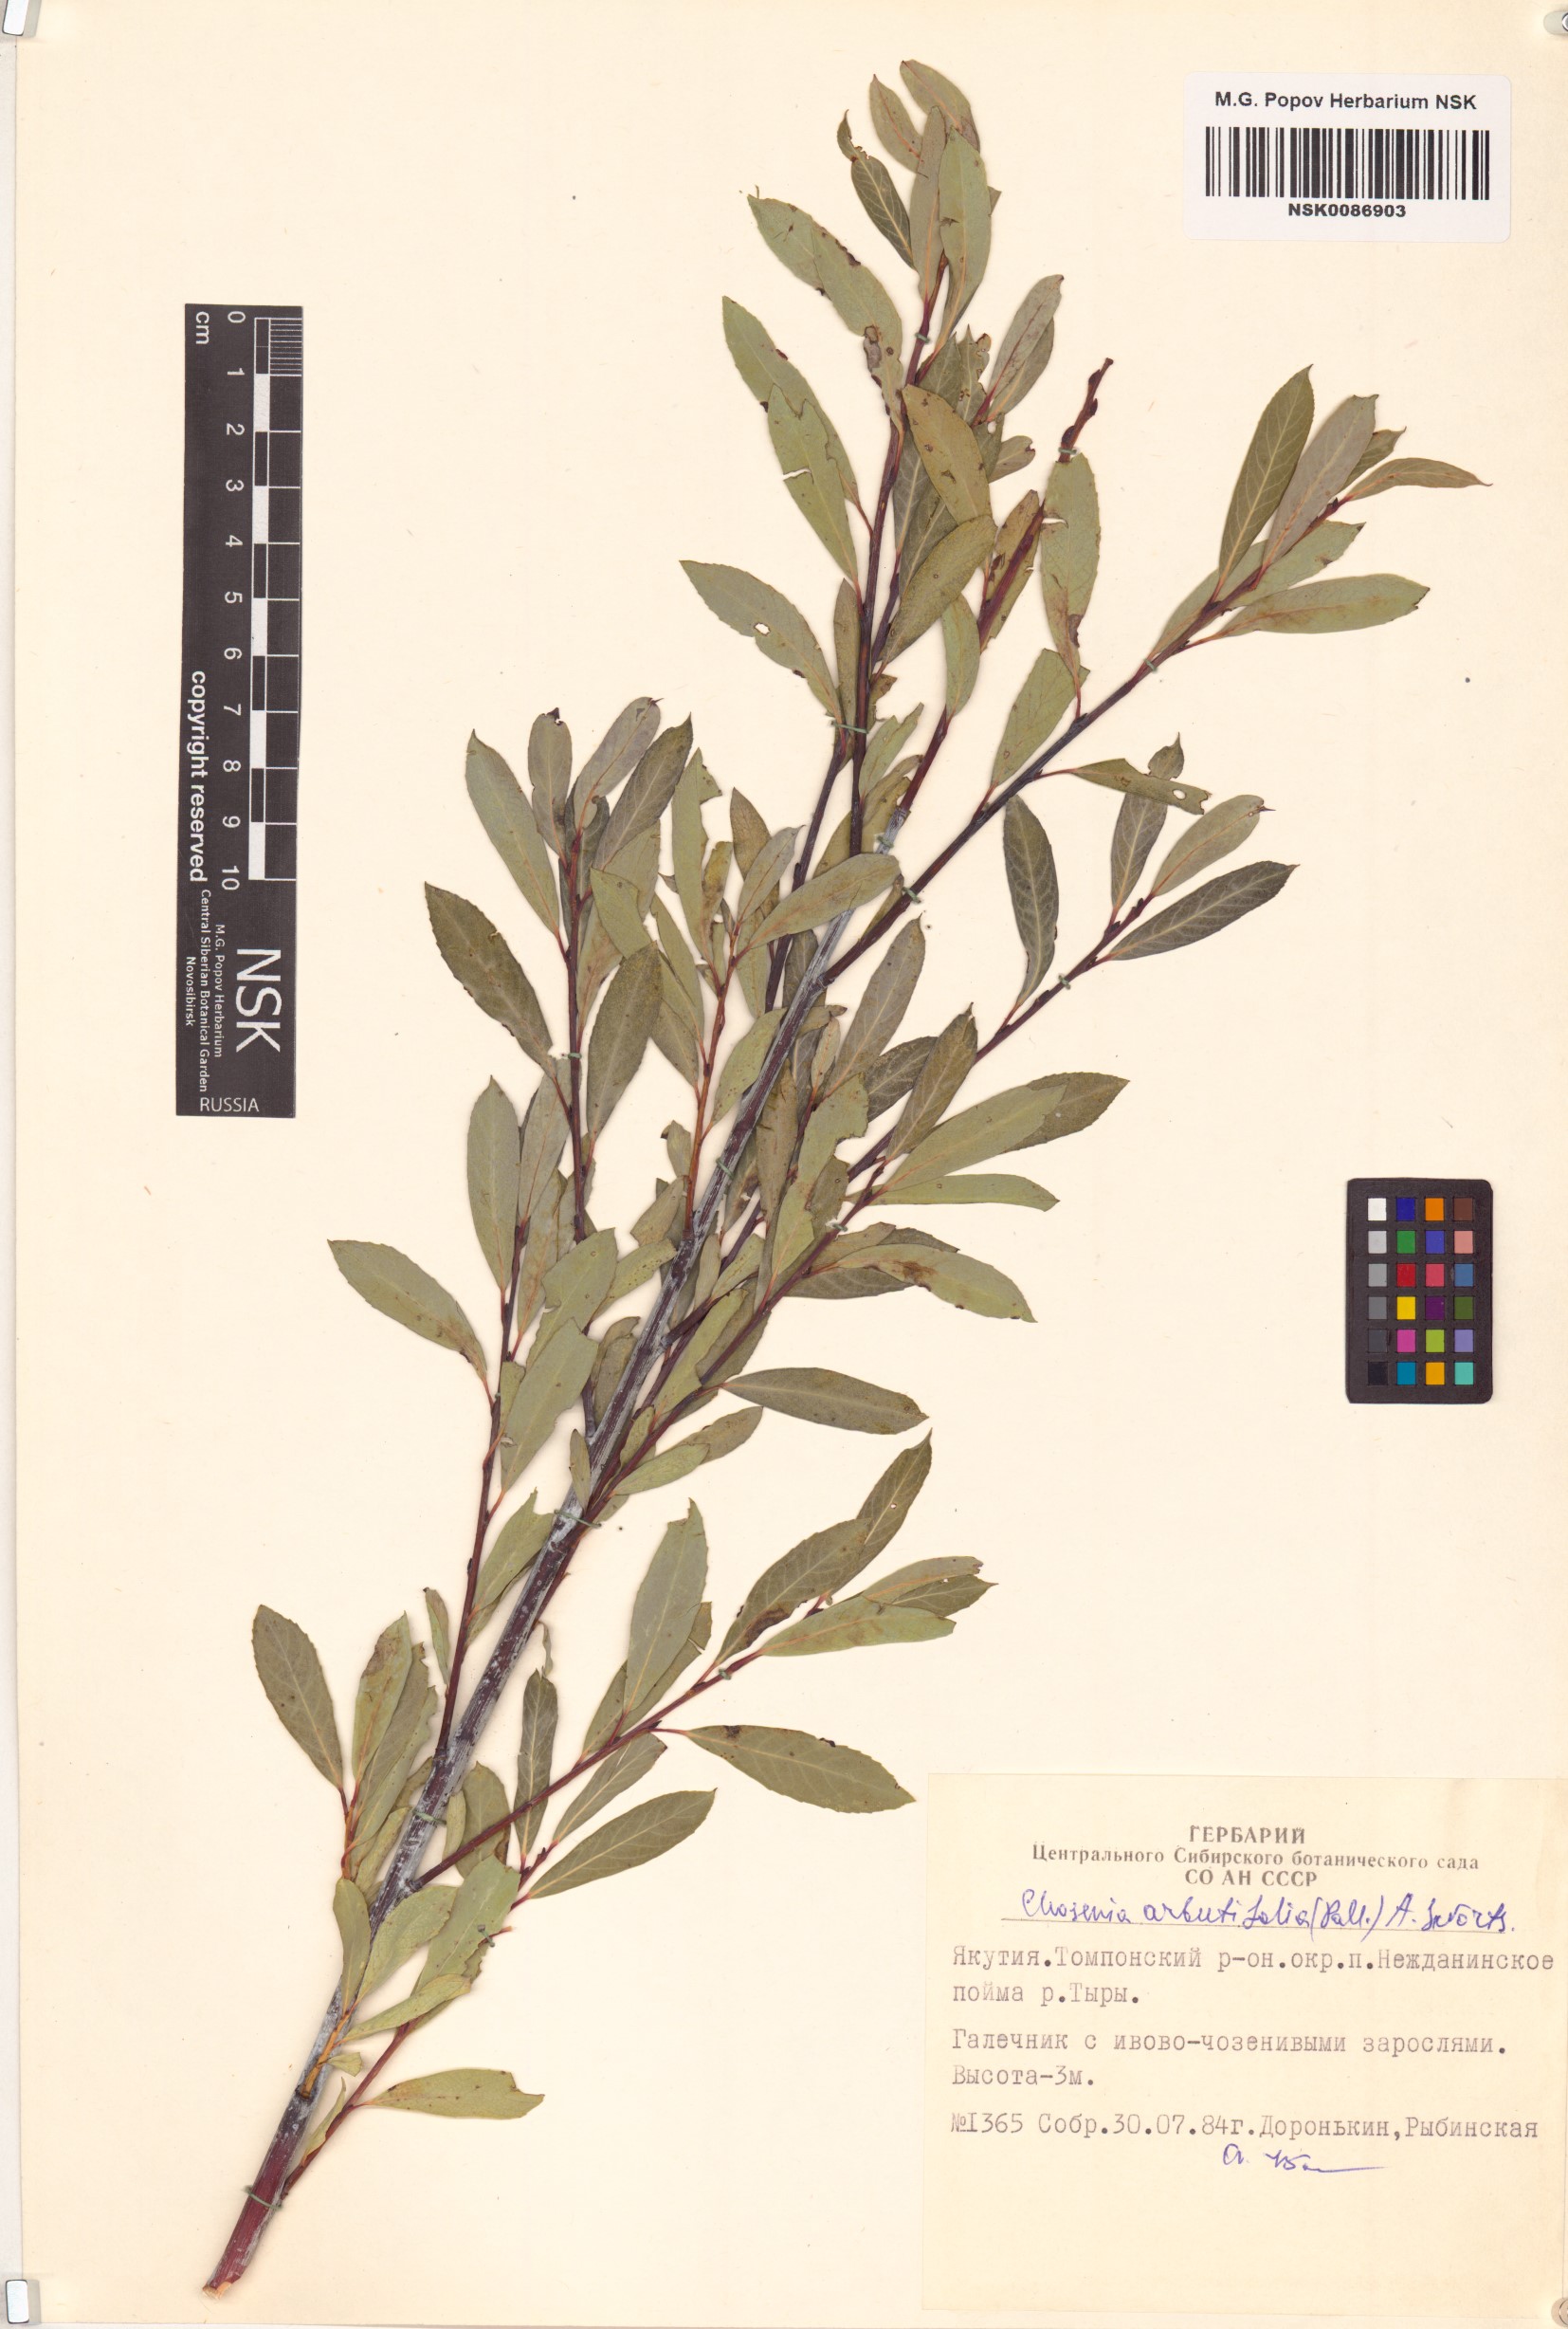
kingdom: Plantae
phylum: Tracheophyta
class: Magnoliopsida
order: Malpighiales
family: Salicaceae
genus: Chosenia
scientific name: Chosenia arbutifolia
